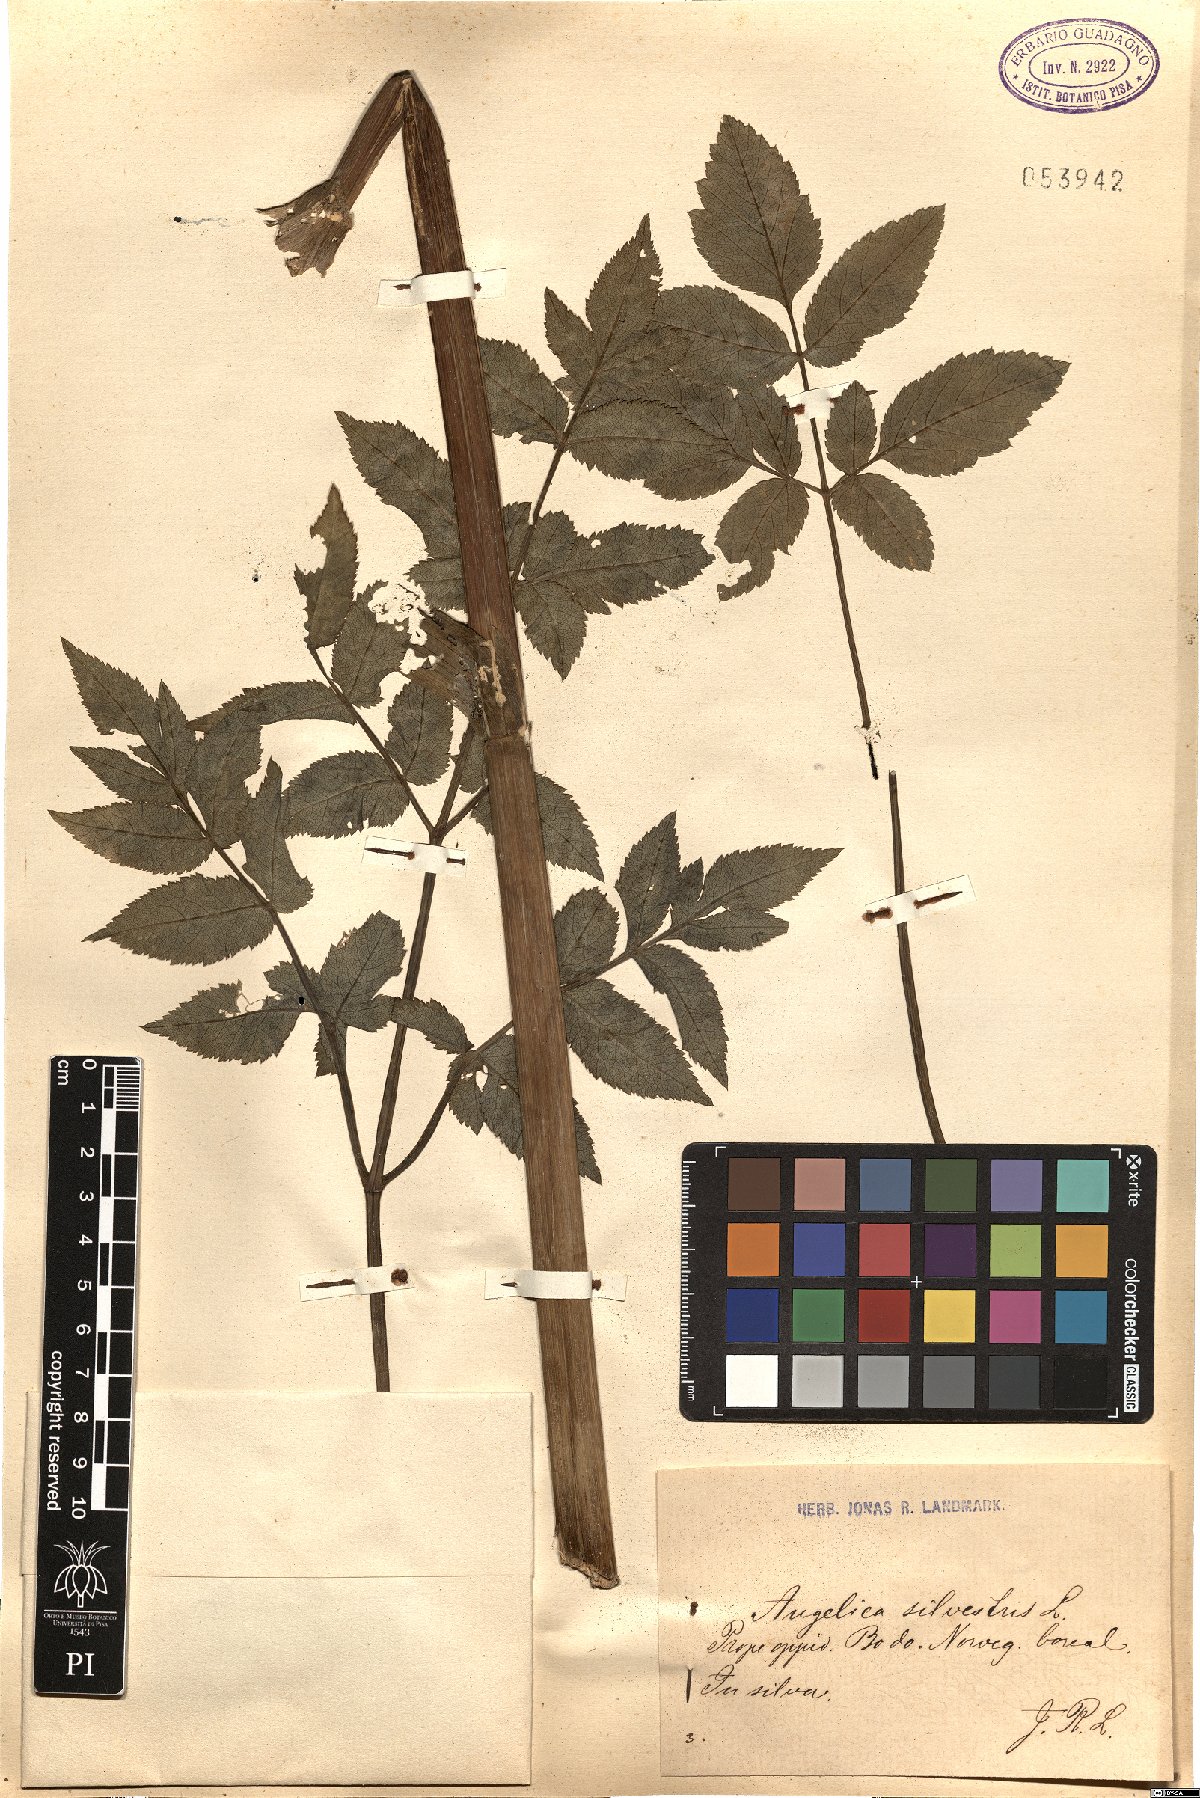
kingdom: Plantae
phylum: Tracheophyta
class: Magnoliopsida
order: Apiales
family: Apiaceae
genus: Angelica
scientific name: Angelica sylvestris
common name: Wild angelica
